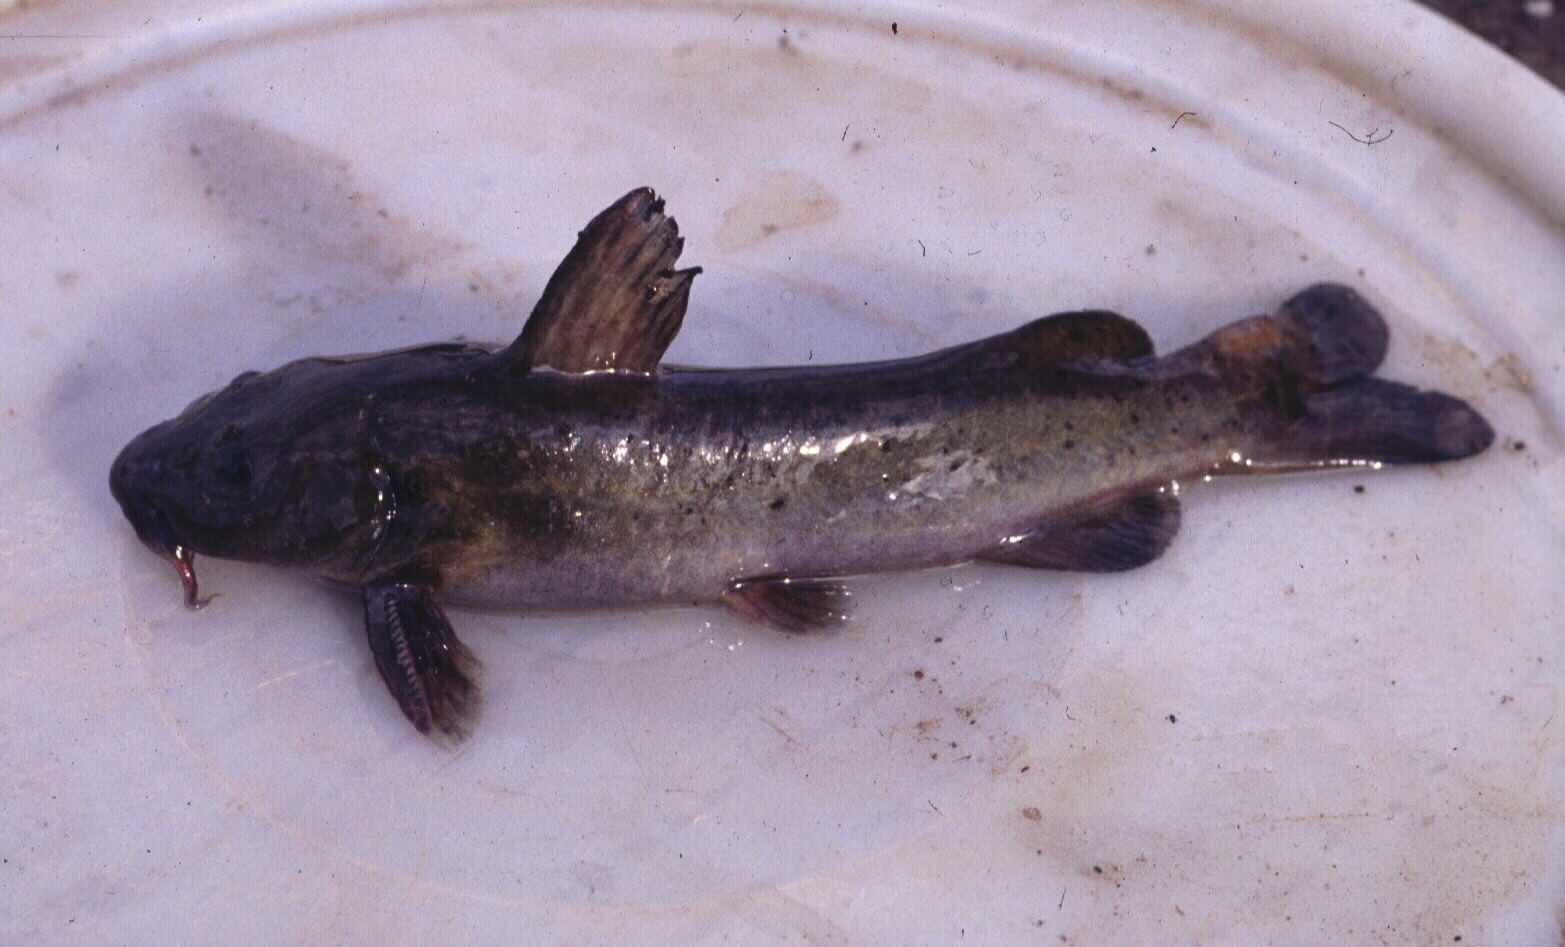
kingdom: Animalia
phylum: Chordata
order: Siluriformes
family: Austroglanididae
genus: Austroglanis
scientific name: Austroglanis sclateri
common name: Rock catfish
